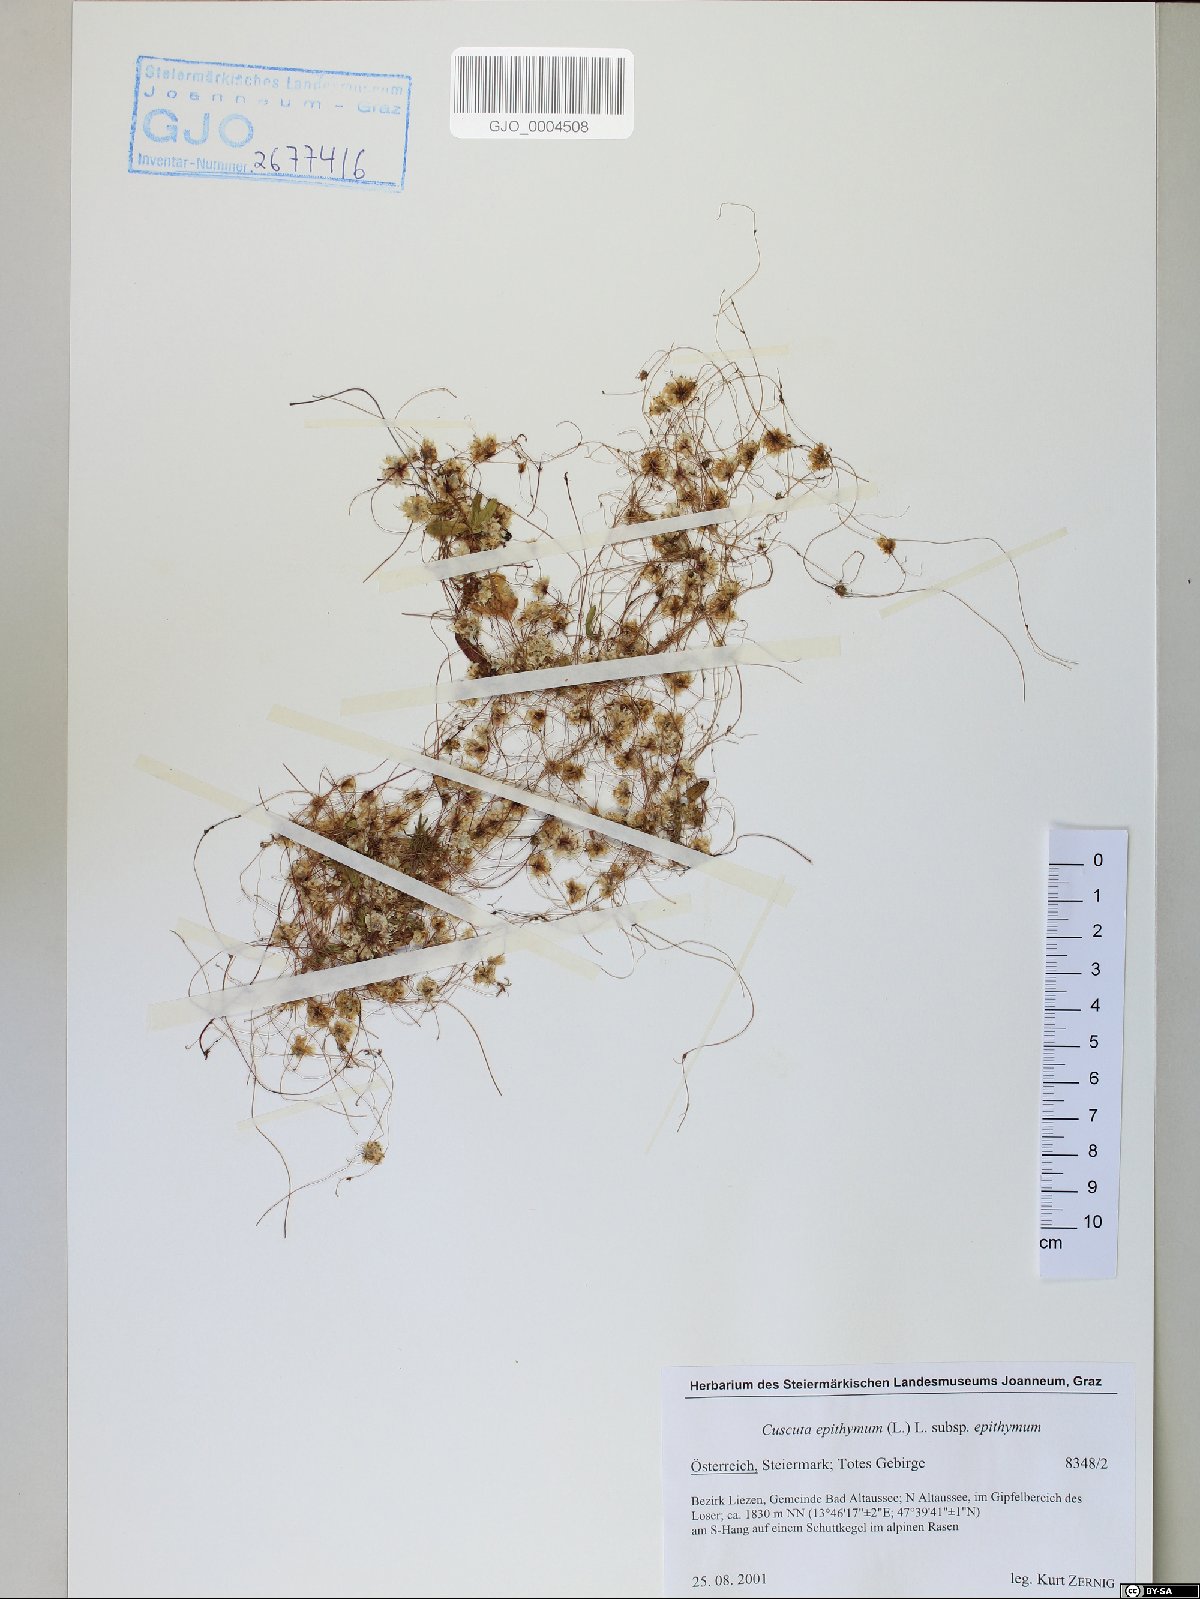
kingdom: Plantae
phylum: Tracheophyta
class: Magnoliopsida
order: Solanales
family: Convolvulaceae
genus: Cuscuta
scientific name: Cuscuta epithymum
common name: Clover dodder
